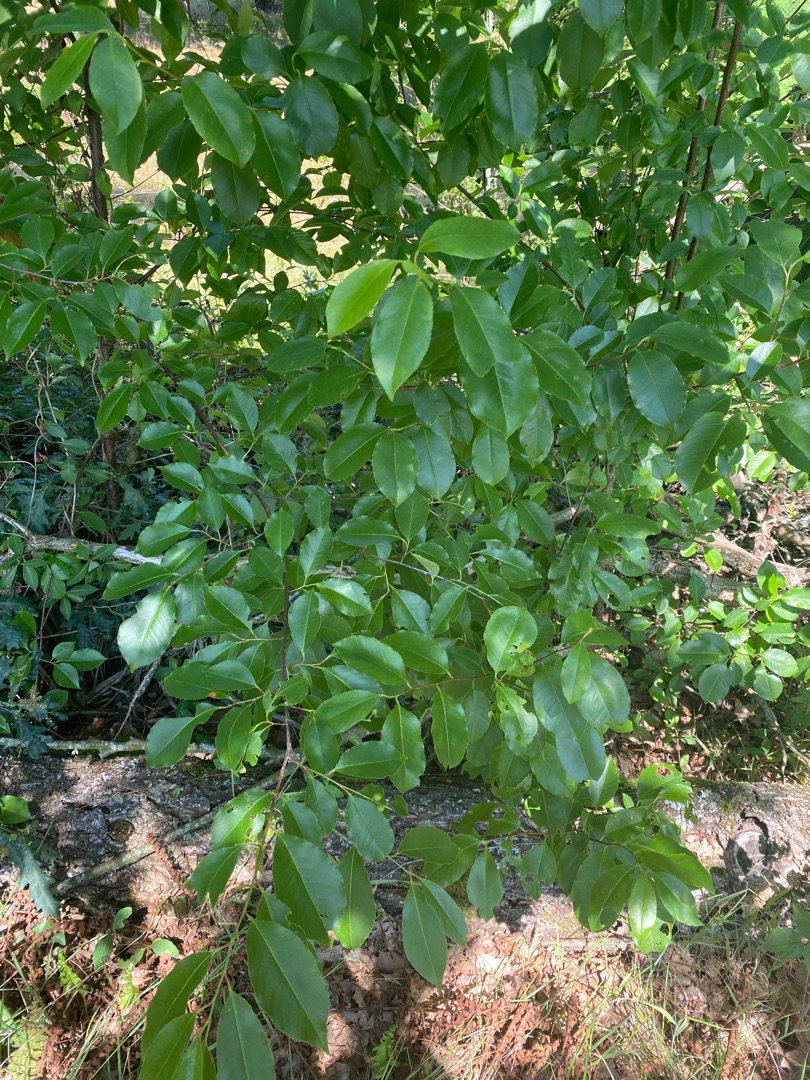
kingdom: Plantae
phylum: Tracheophyta
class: Magnoliopsida
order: Rosales
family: Rosaceae
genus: Prunus
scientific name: Prunus serotina
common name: Glansbladet hæg
